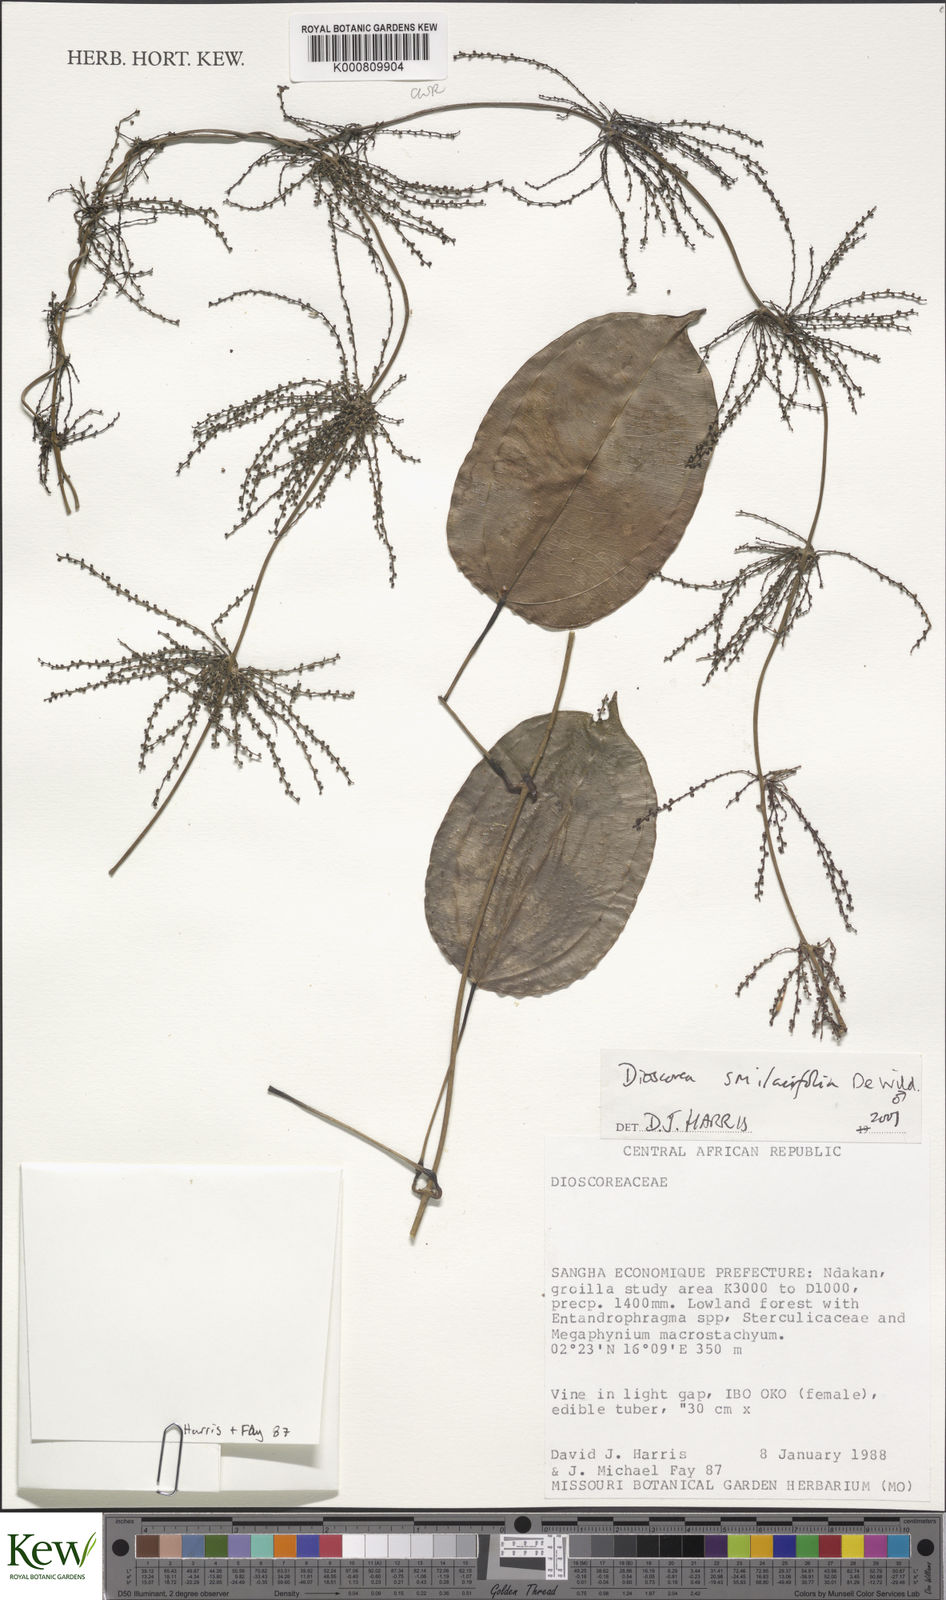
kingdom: Plantae
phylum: Tracheophyta
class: Liliopsida
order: Dioscoreales
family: Dioscoreaceae
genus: Dioscorea
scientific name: Dioscorea smilacifolia
